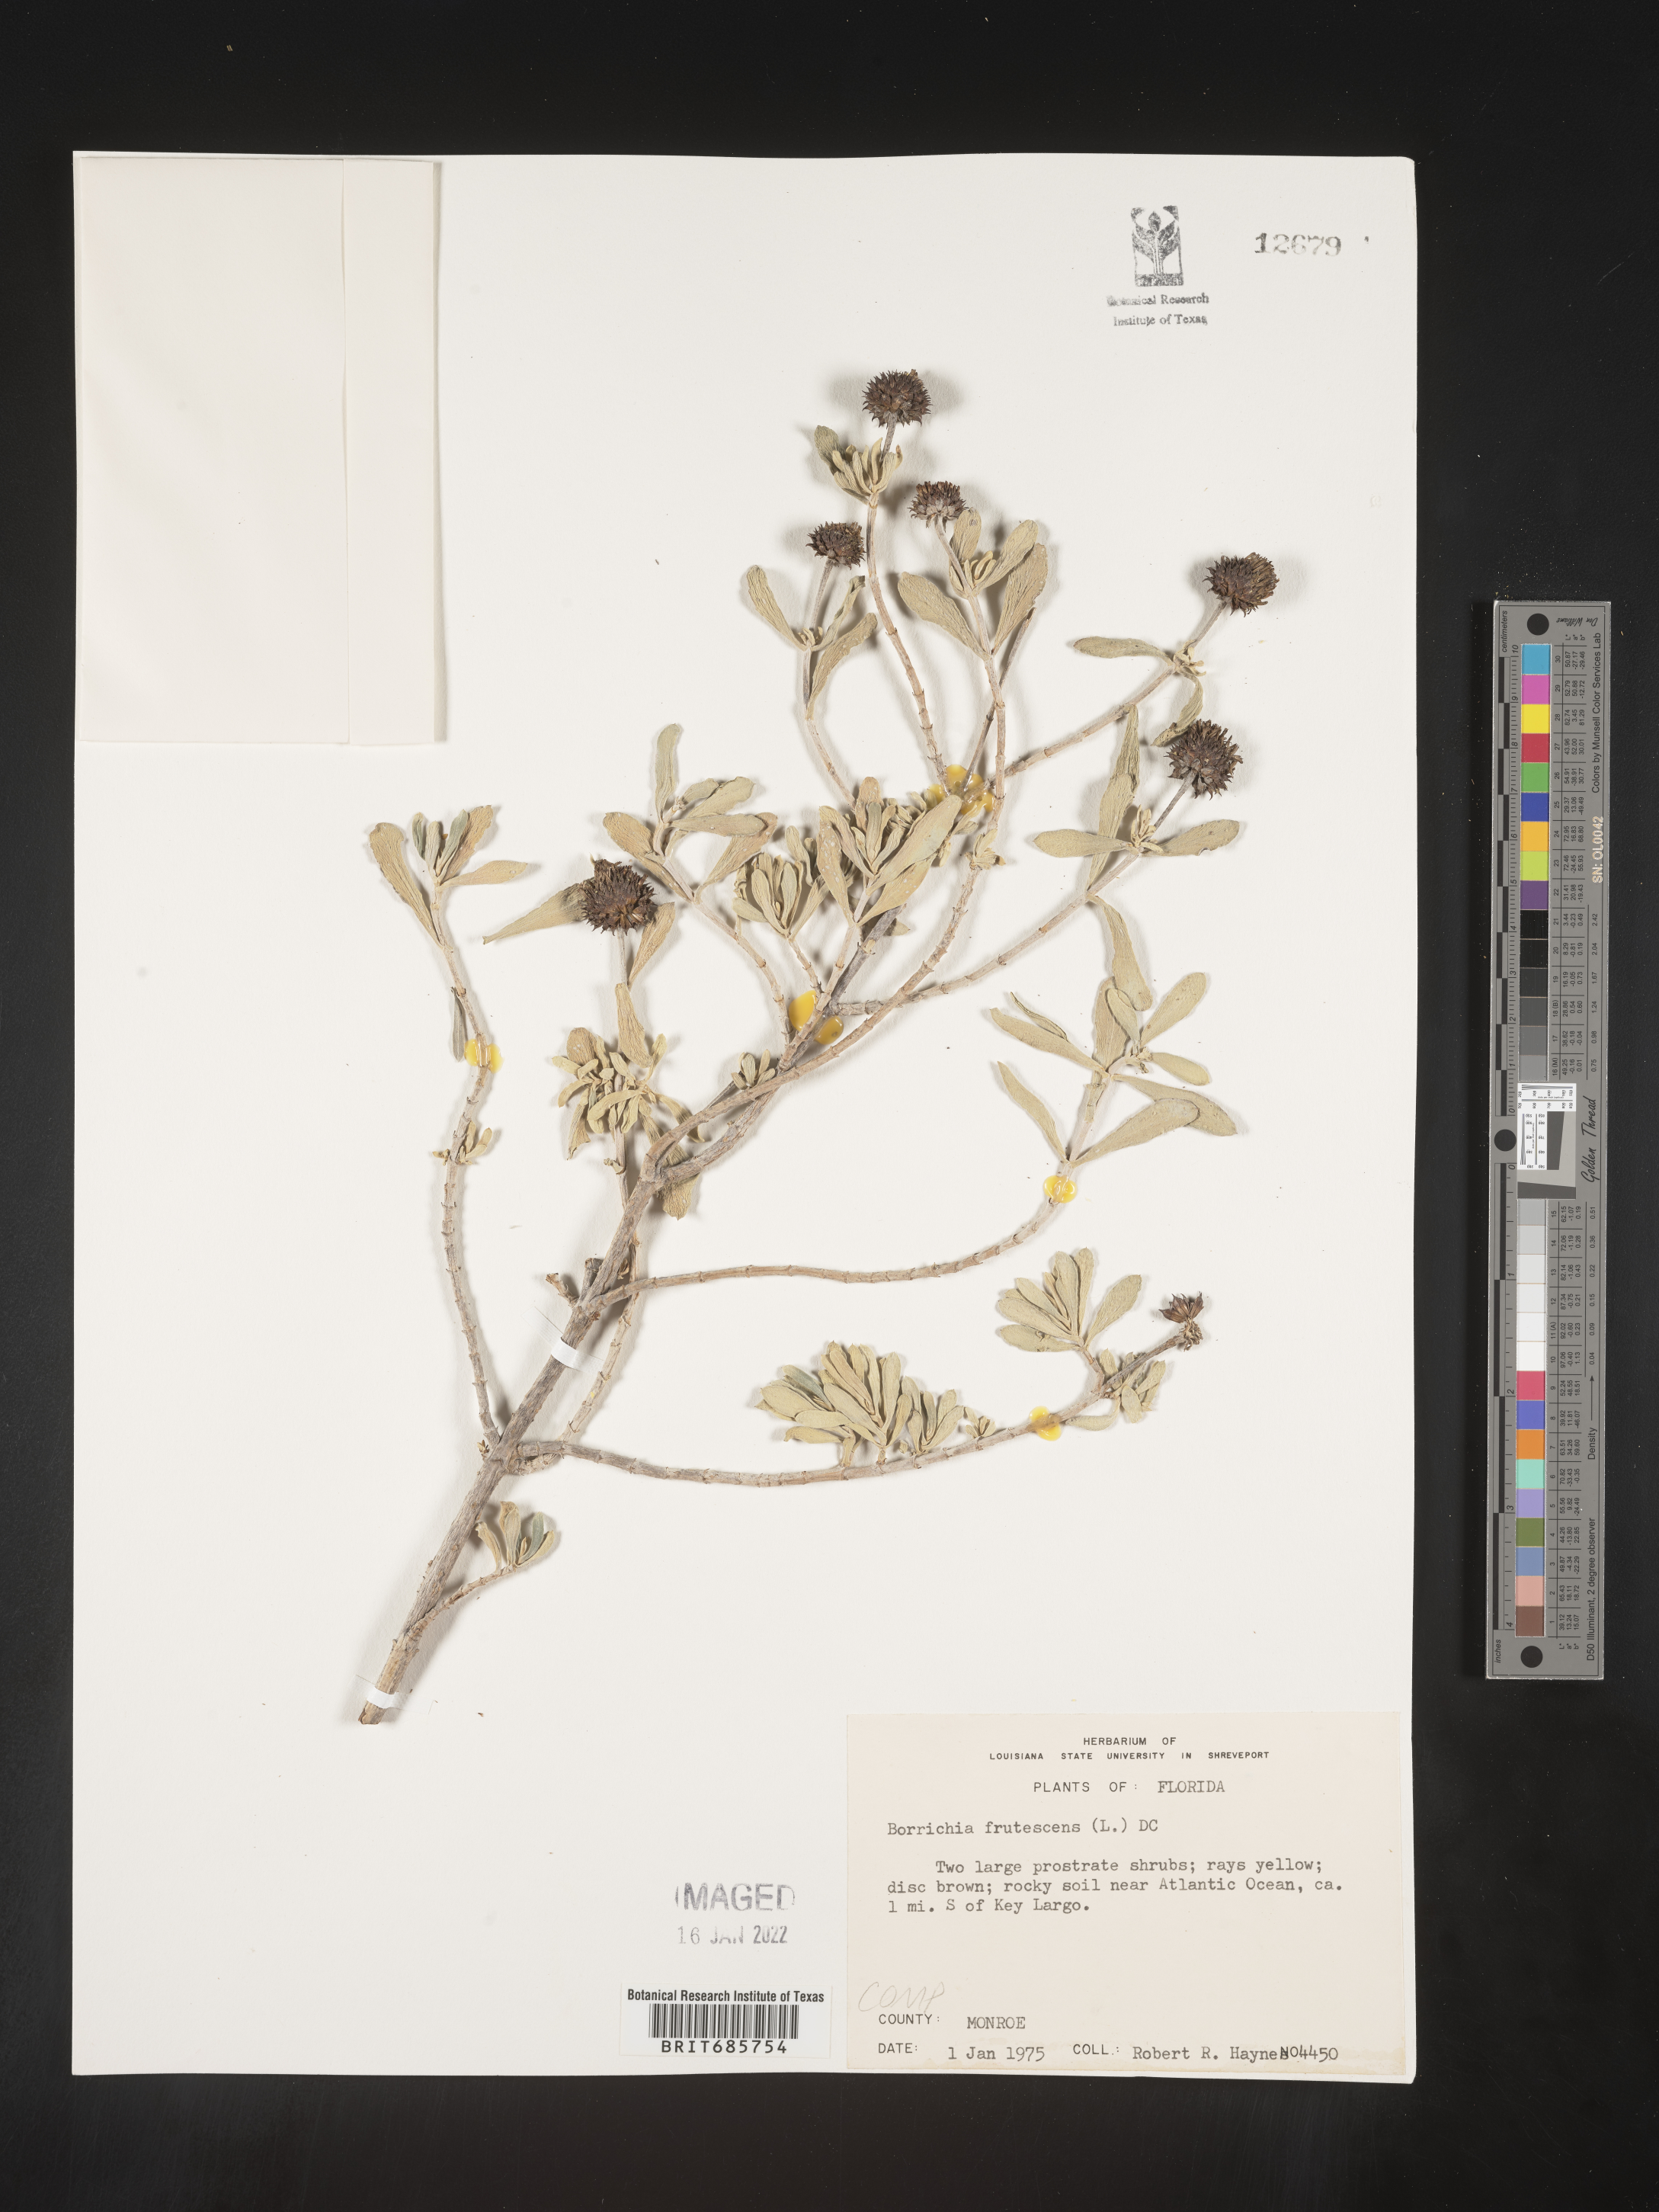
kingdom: Plantae
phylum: Tracheophyta
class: Magnoliopsida
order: Asterales
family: Asteraceae
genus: Borrichia
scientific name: Borrichia frutescens
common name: Sea oxeye
